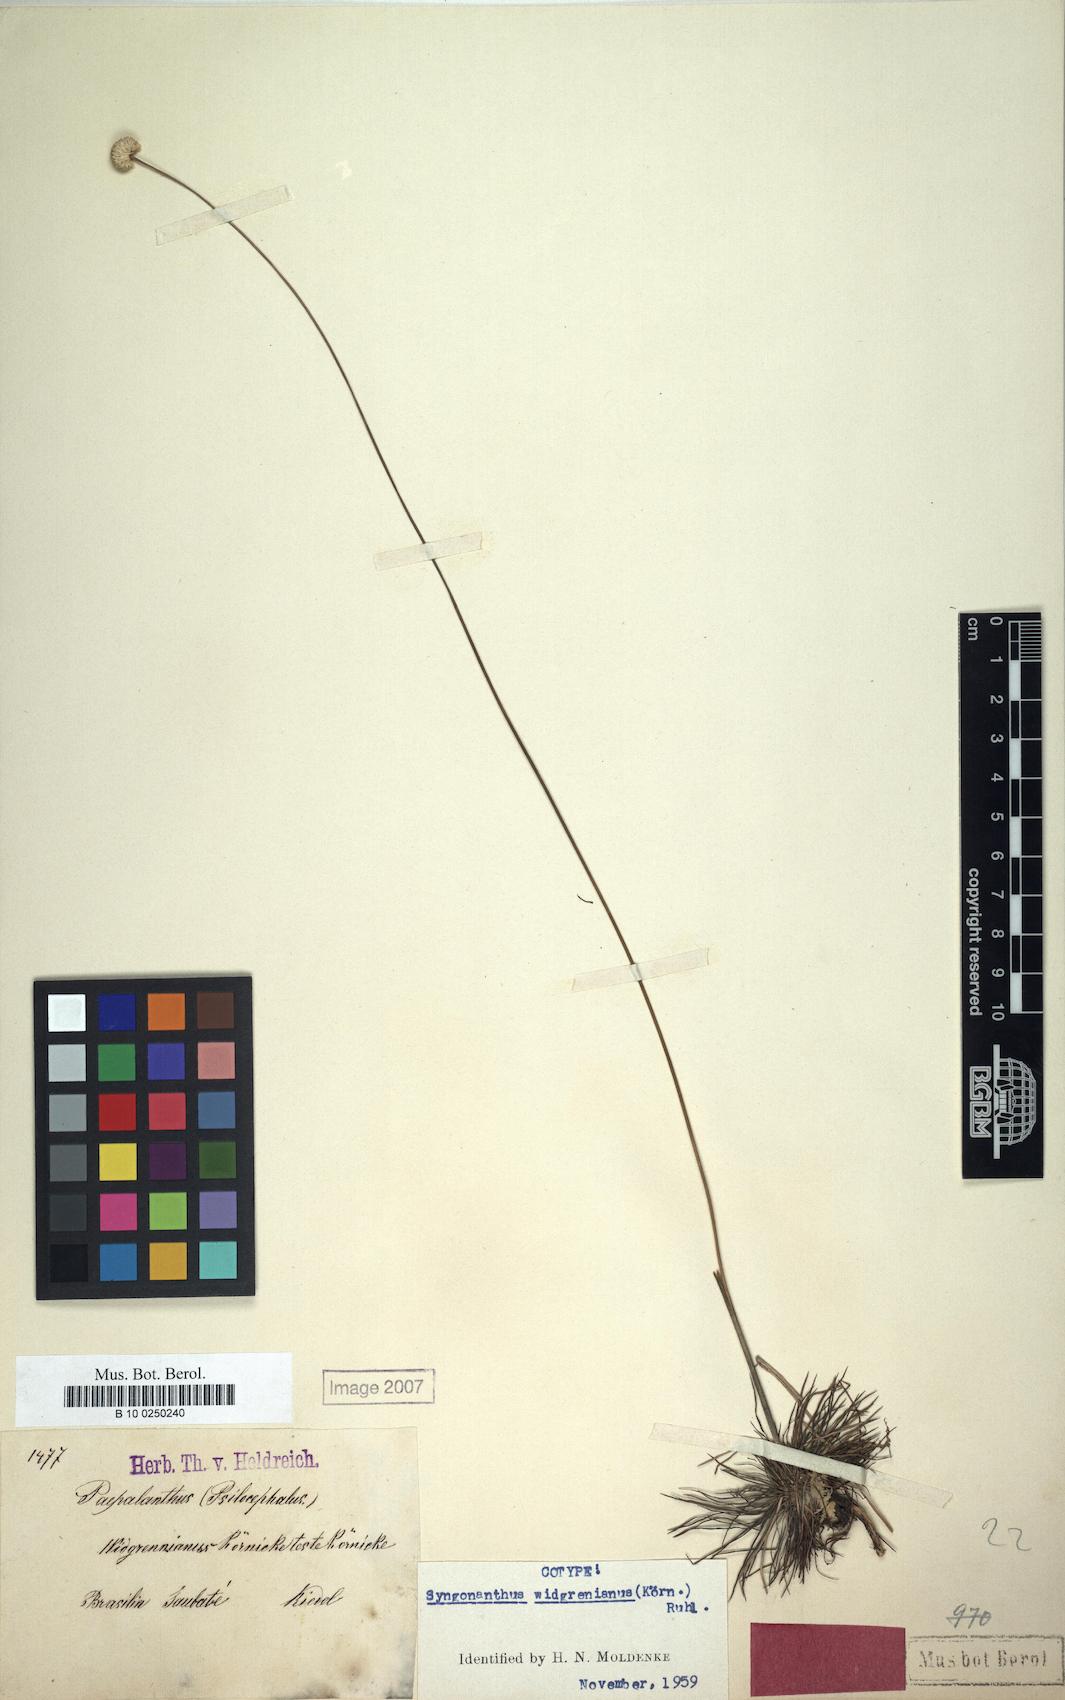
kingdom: Plantae
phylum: Tracheophyta
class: Liliopsida
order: Poales
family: Eriocaulaceae
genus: Syngonanthus
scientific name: Syngonanthus widgrenianus
